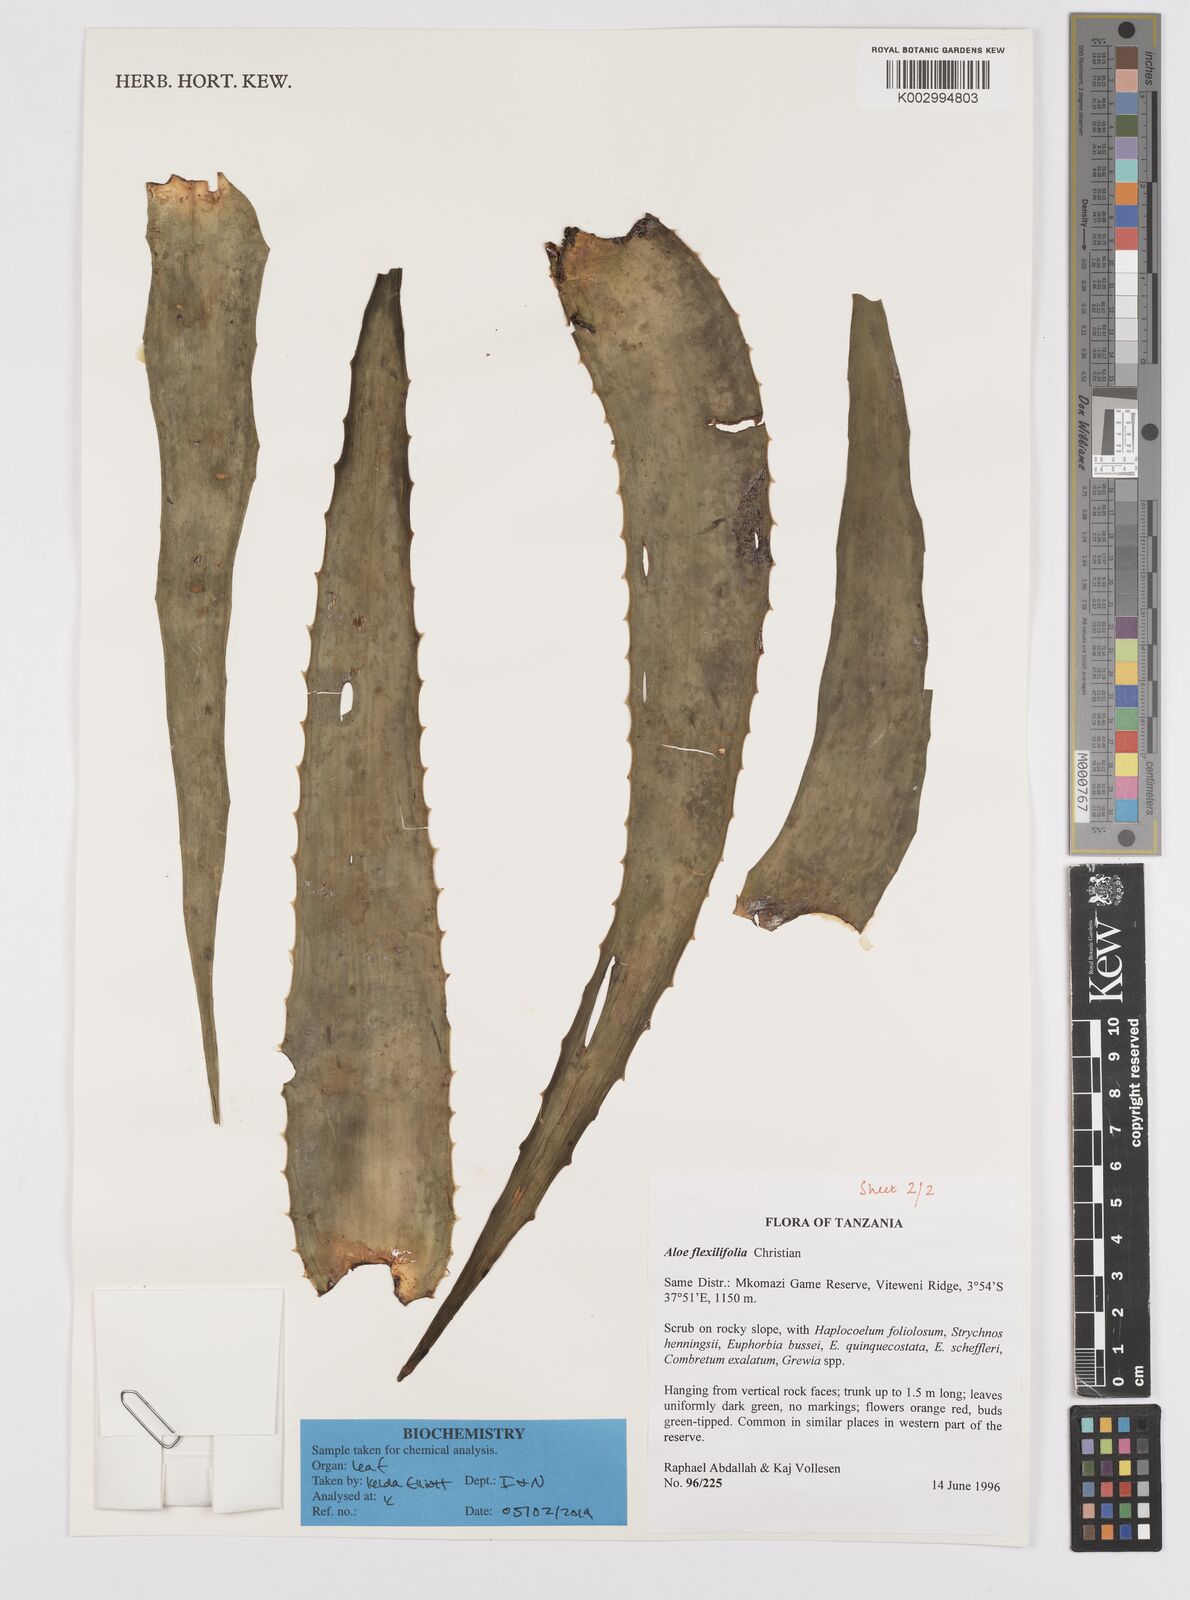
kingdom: Plantae
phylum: Tracheophyta
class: Liliopsida
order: Asparagales
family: Asphodelaceae
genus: Aloe
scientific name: Aloe flexilifolia
